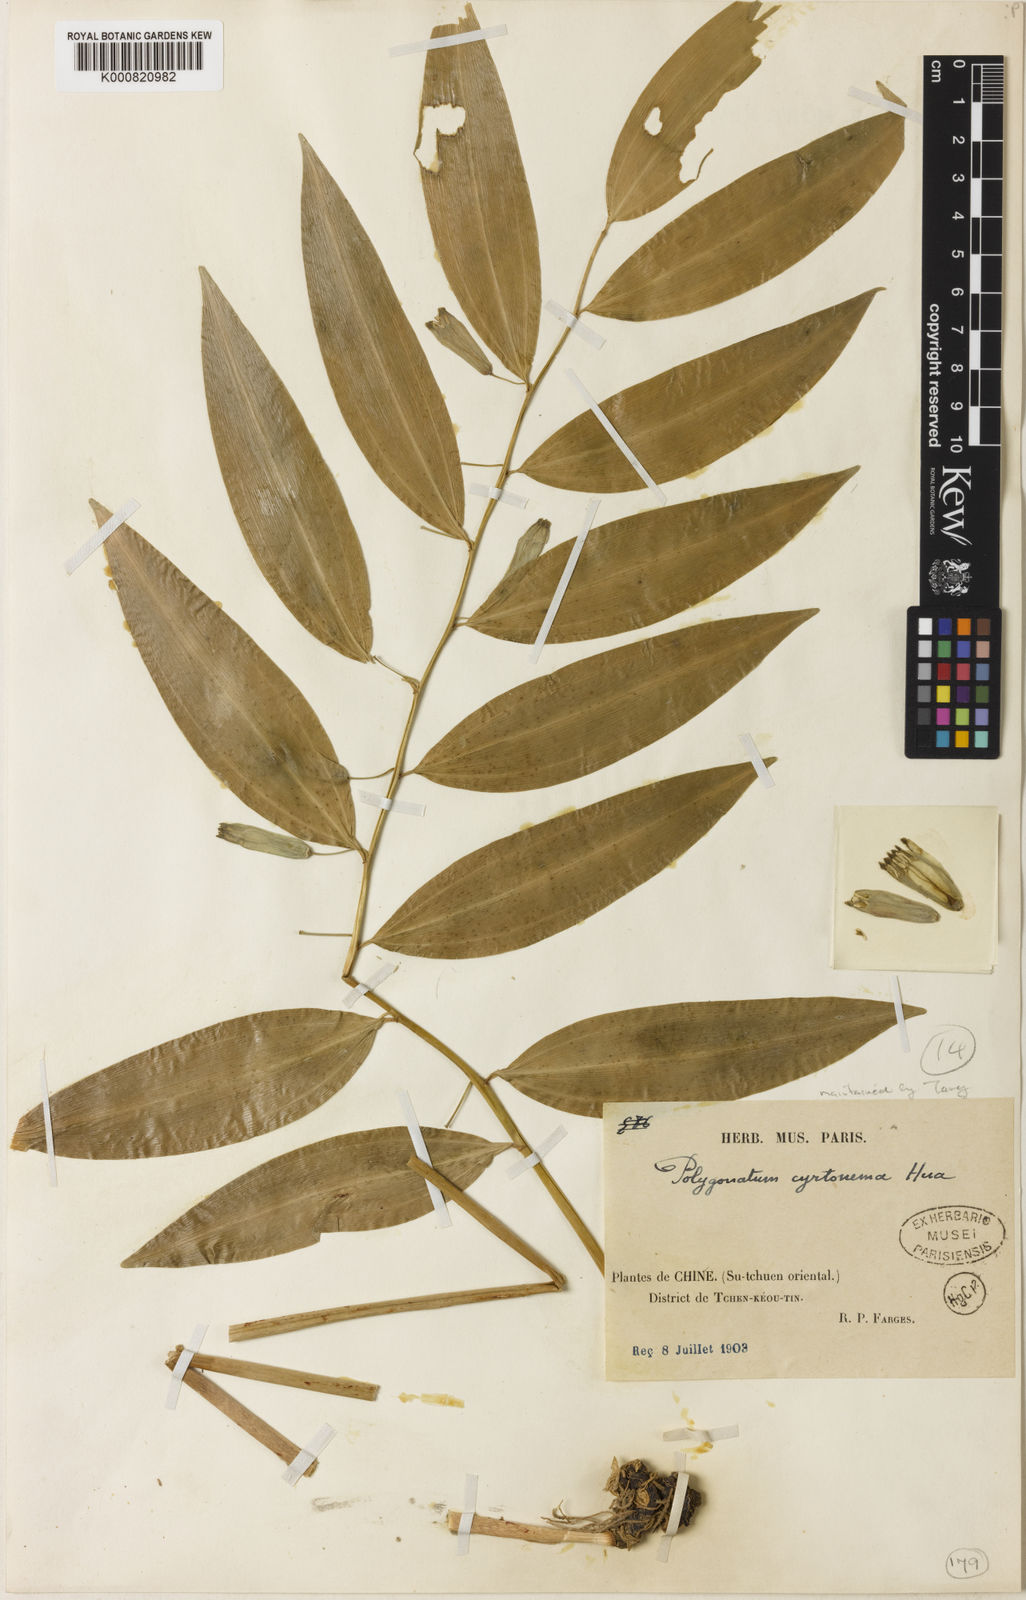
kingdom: Plantae
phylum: Tracheophyta
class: Liliopsida
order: Asparagales
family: Asparagaceae
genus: Polygonatum
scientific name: Polygonatum cyrtonema
